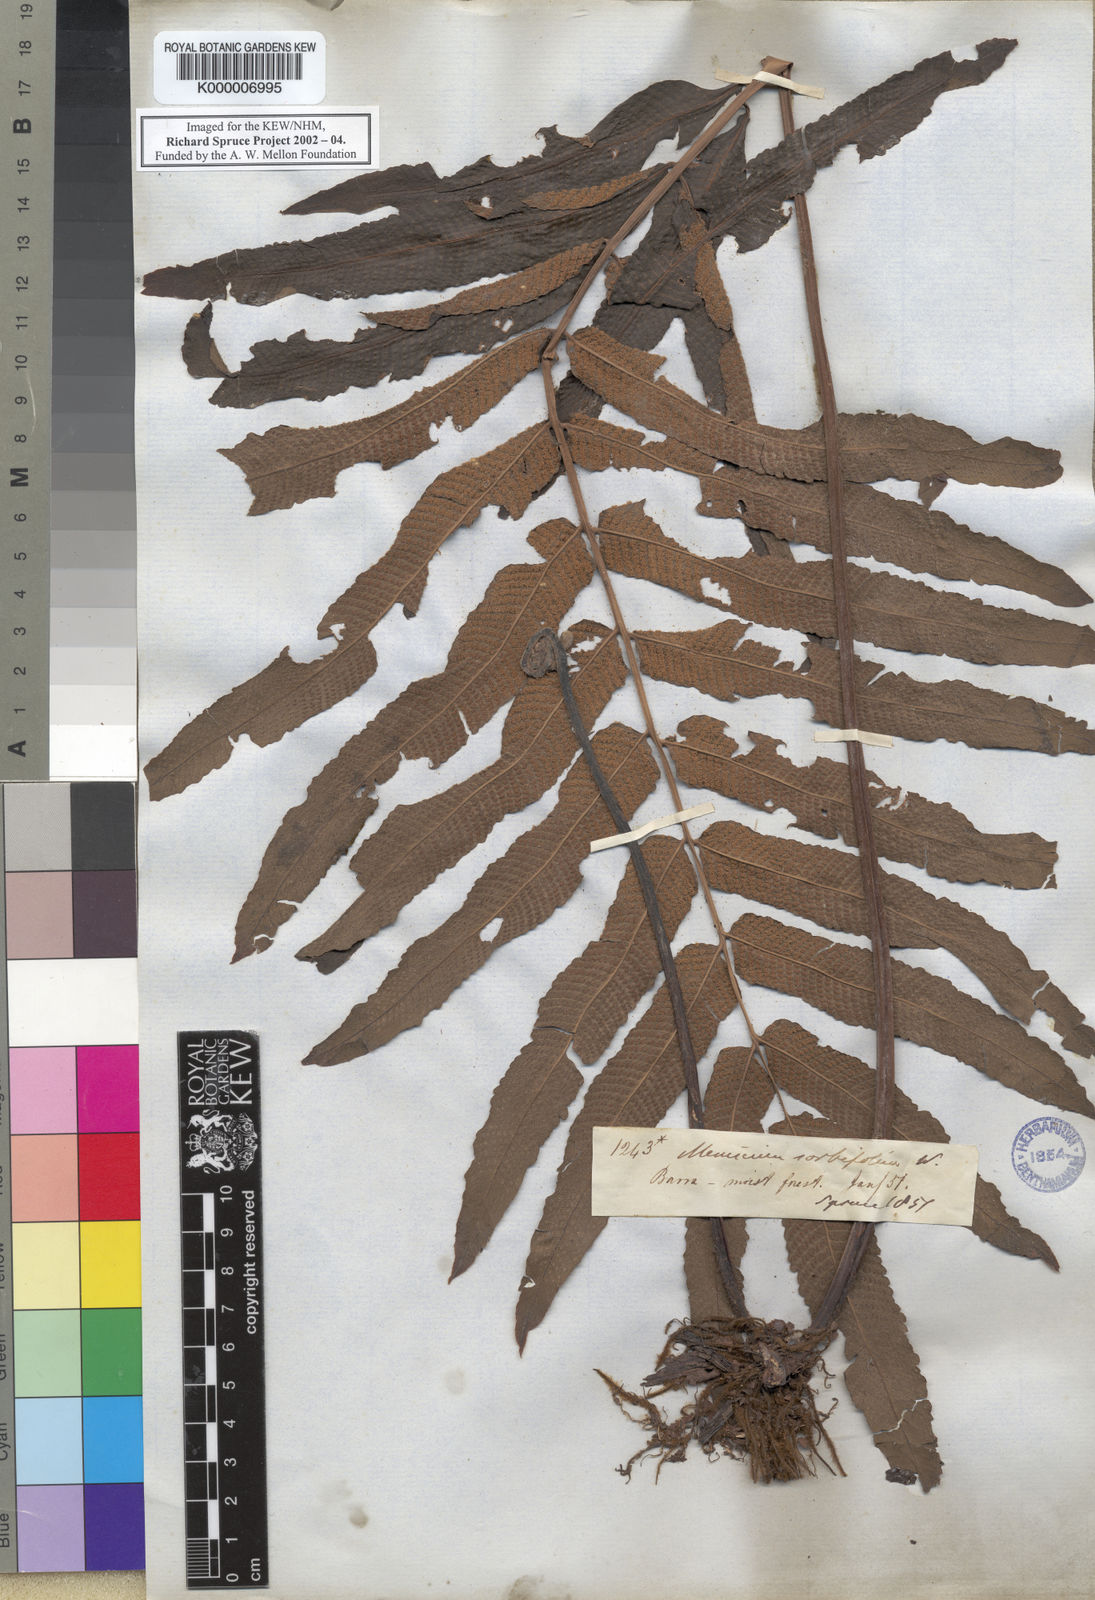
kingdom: Plantae
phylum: Tracheophyta
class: Polypodiopsida
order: Polypodiales
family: Thelypteridaceae
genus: Meniscium
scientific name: Meniscium serratum
